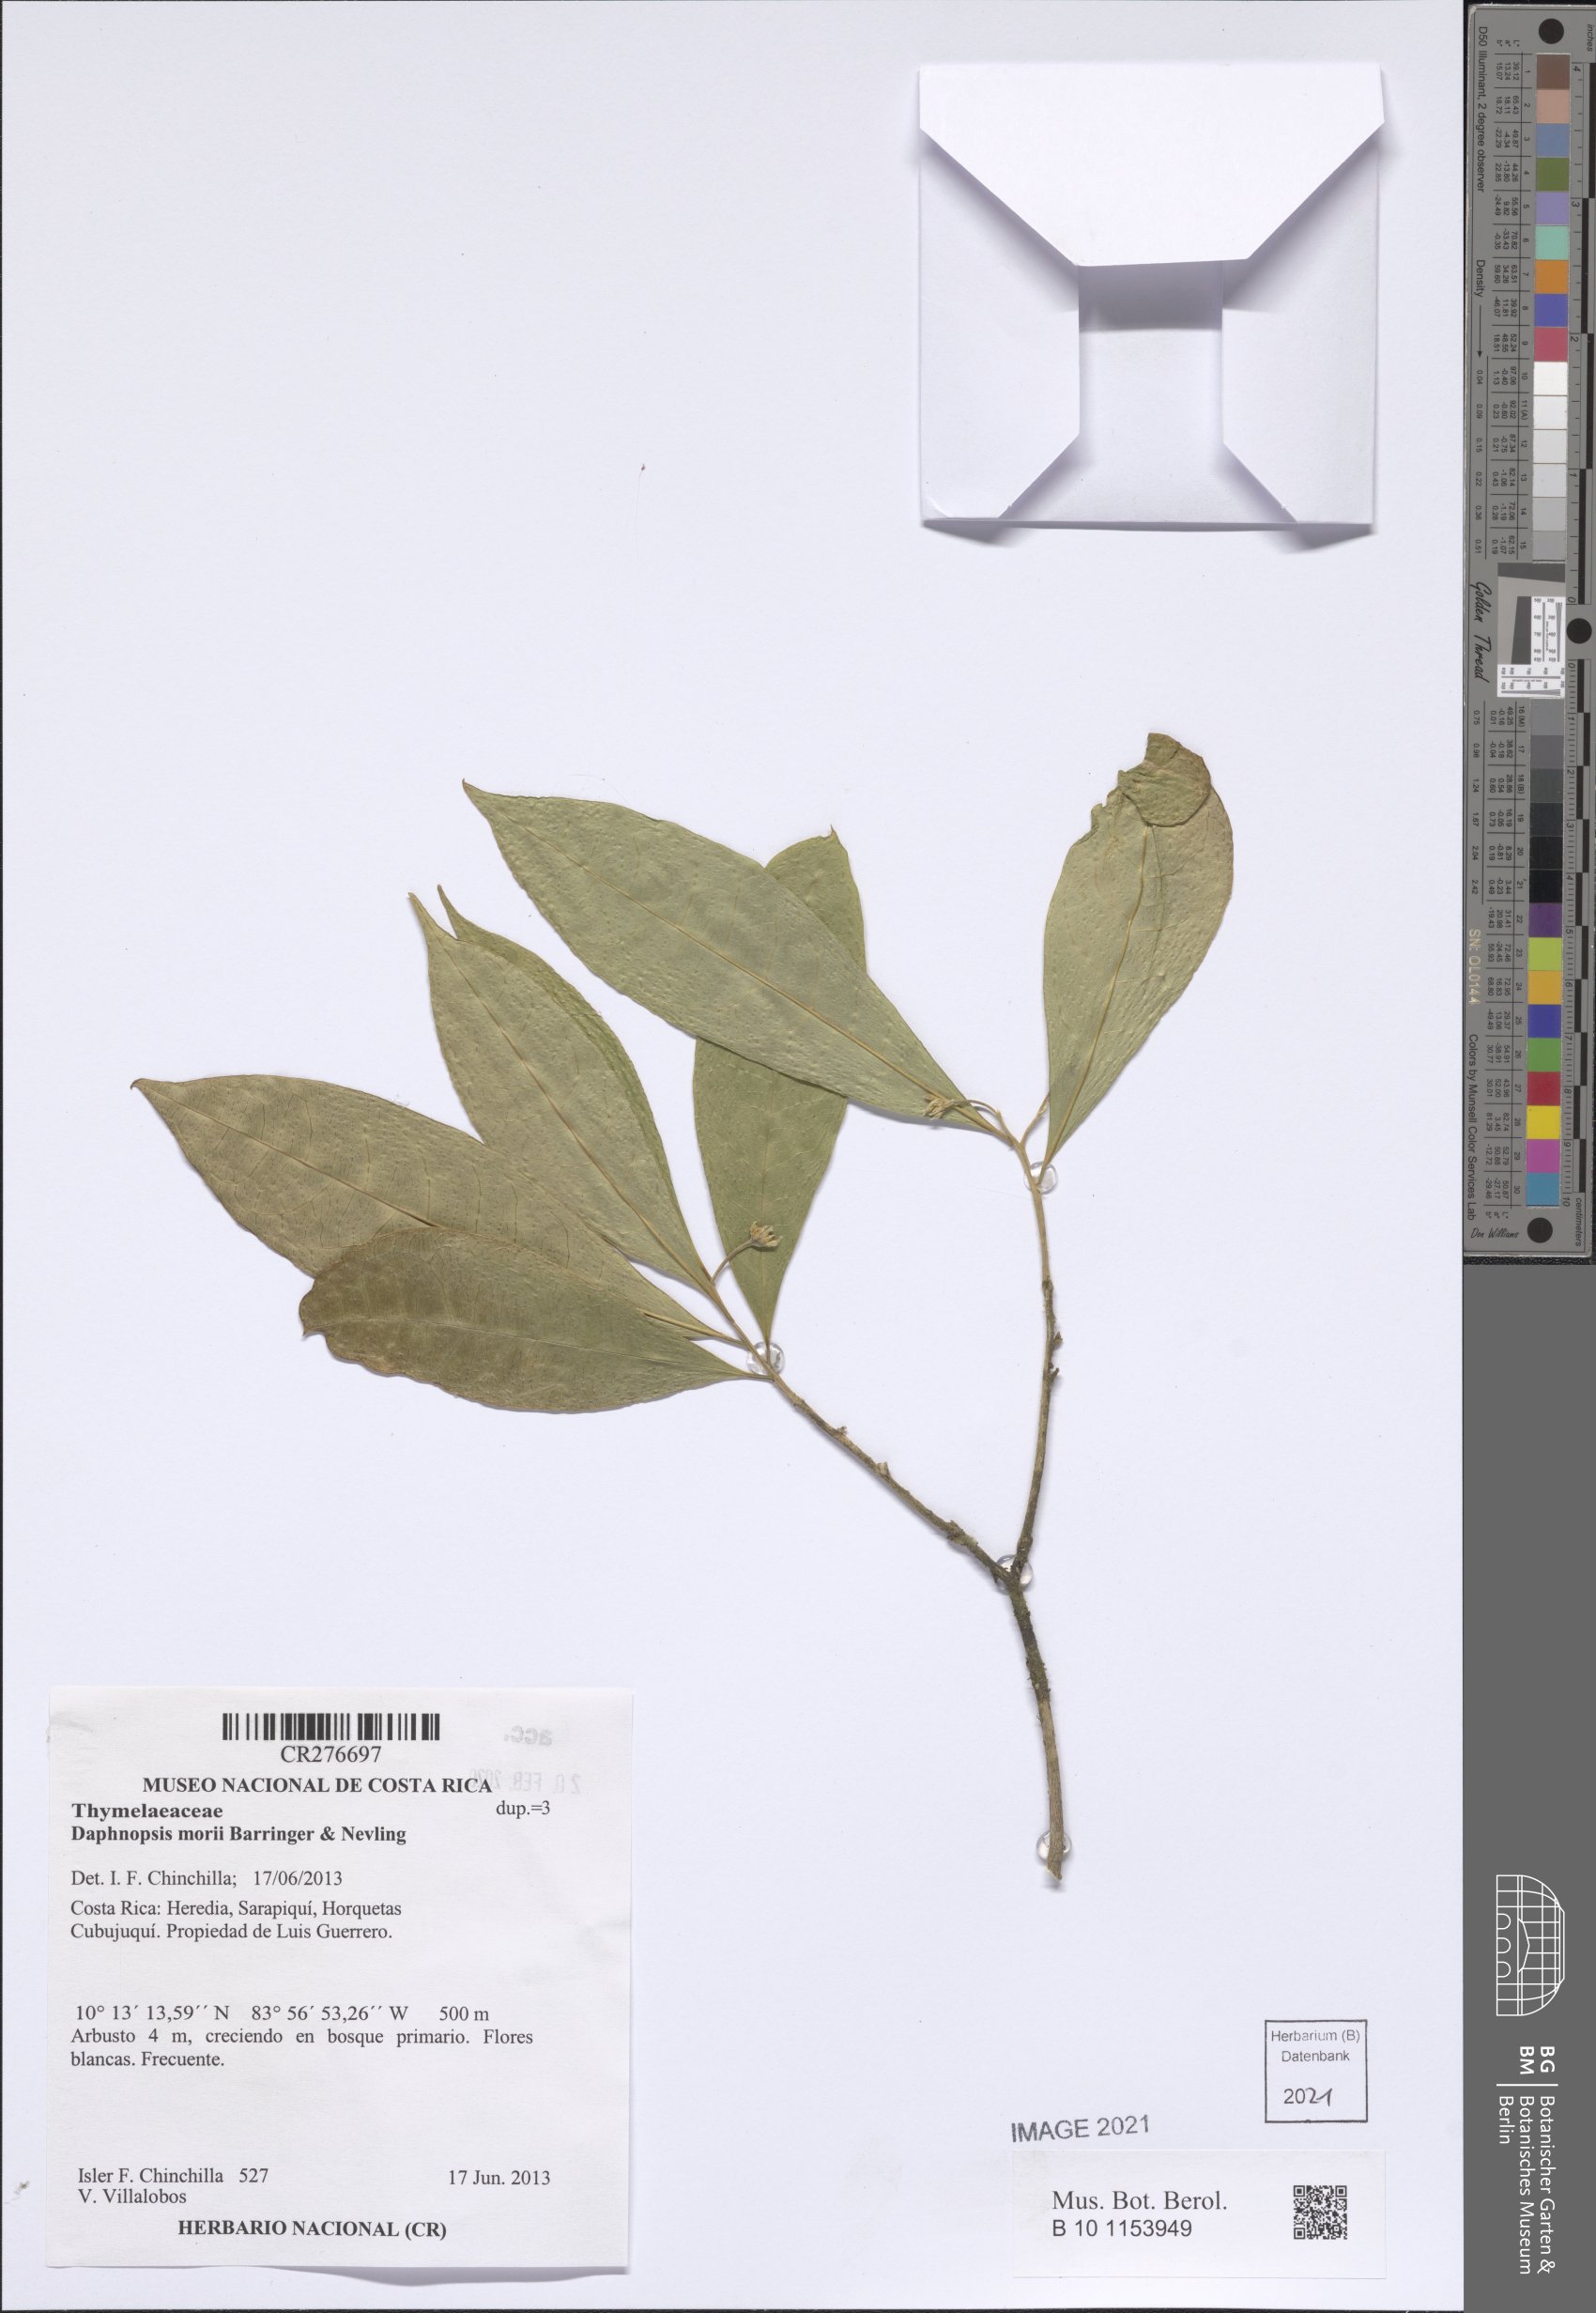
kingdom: Plantae
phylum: Tracheophyta
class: Magnoliopsida
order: Malvales
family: Thymelaeaceae
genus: Daphnopsis
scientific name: Daphnopsis
